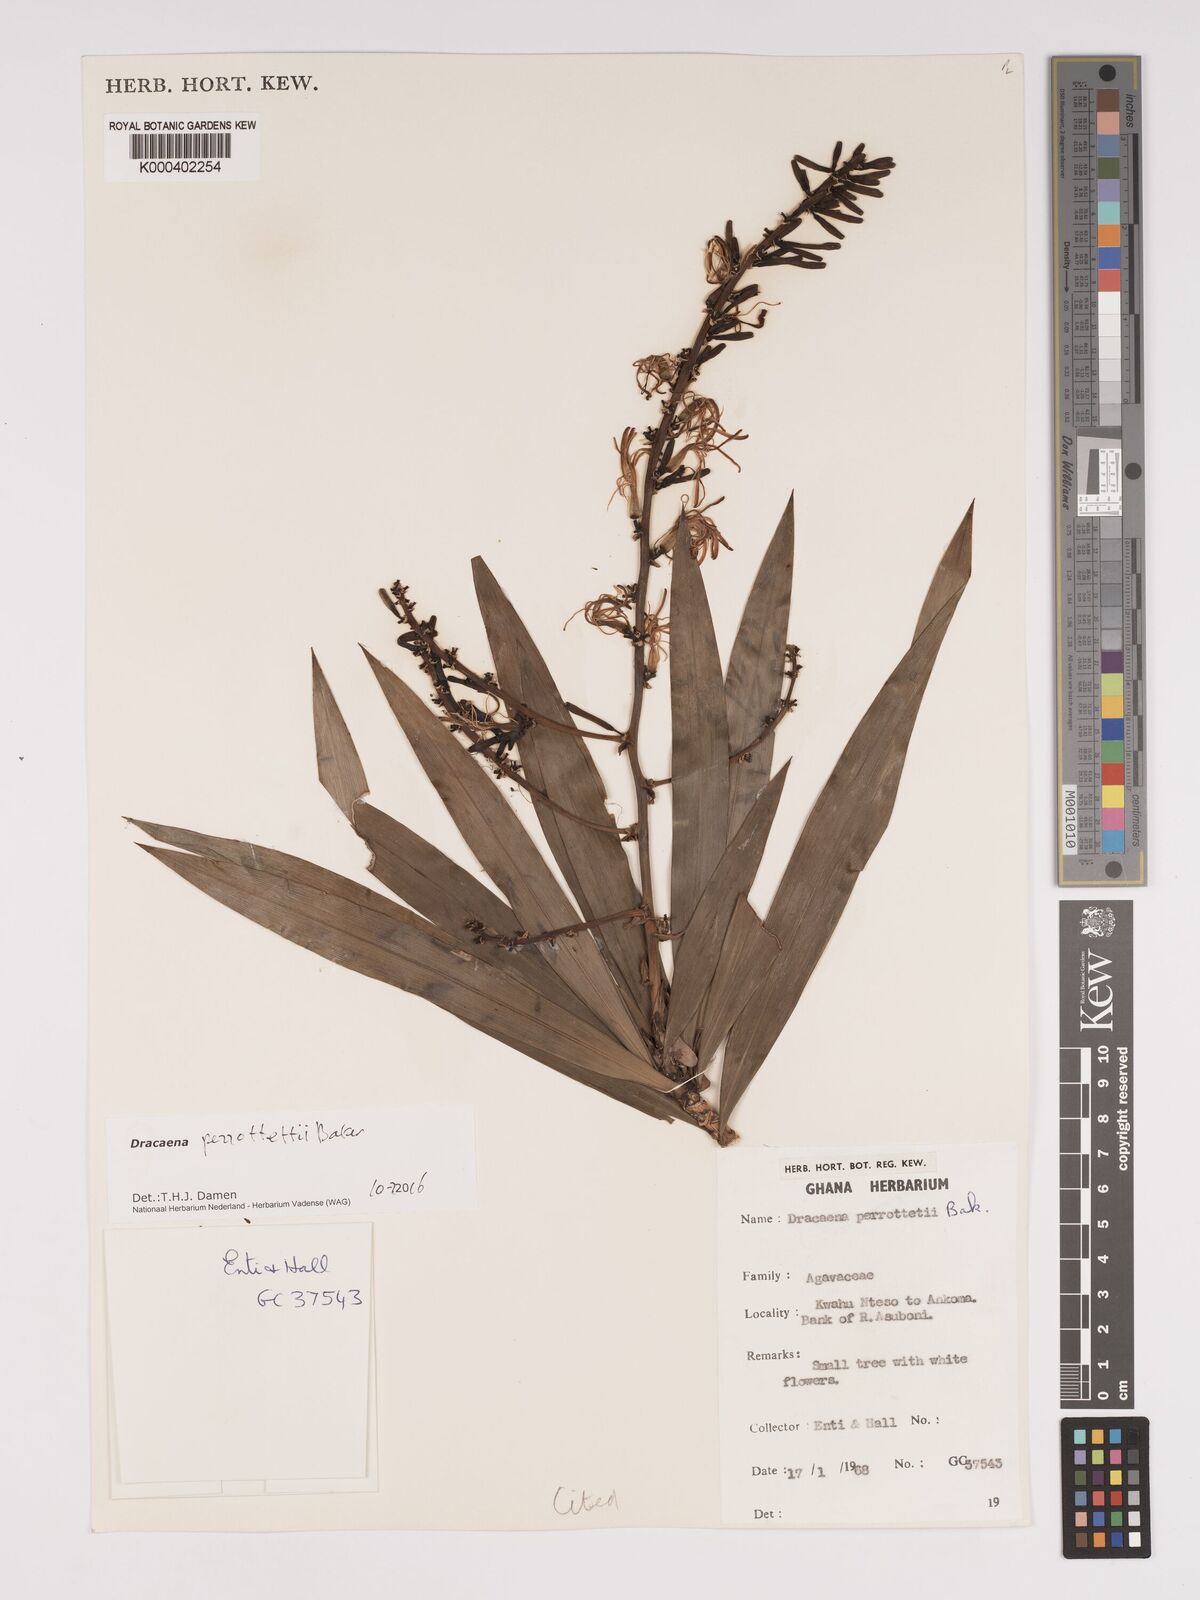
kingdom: Plantae
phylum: Tracheophyta
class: Liliopsida
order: Asparagales
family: Asparagaceae
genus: Dracaena
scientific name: Dracaena perrottetii
